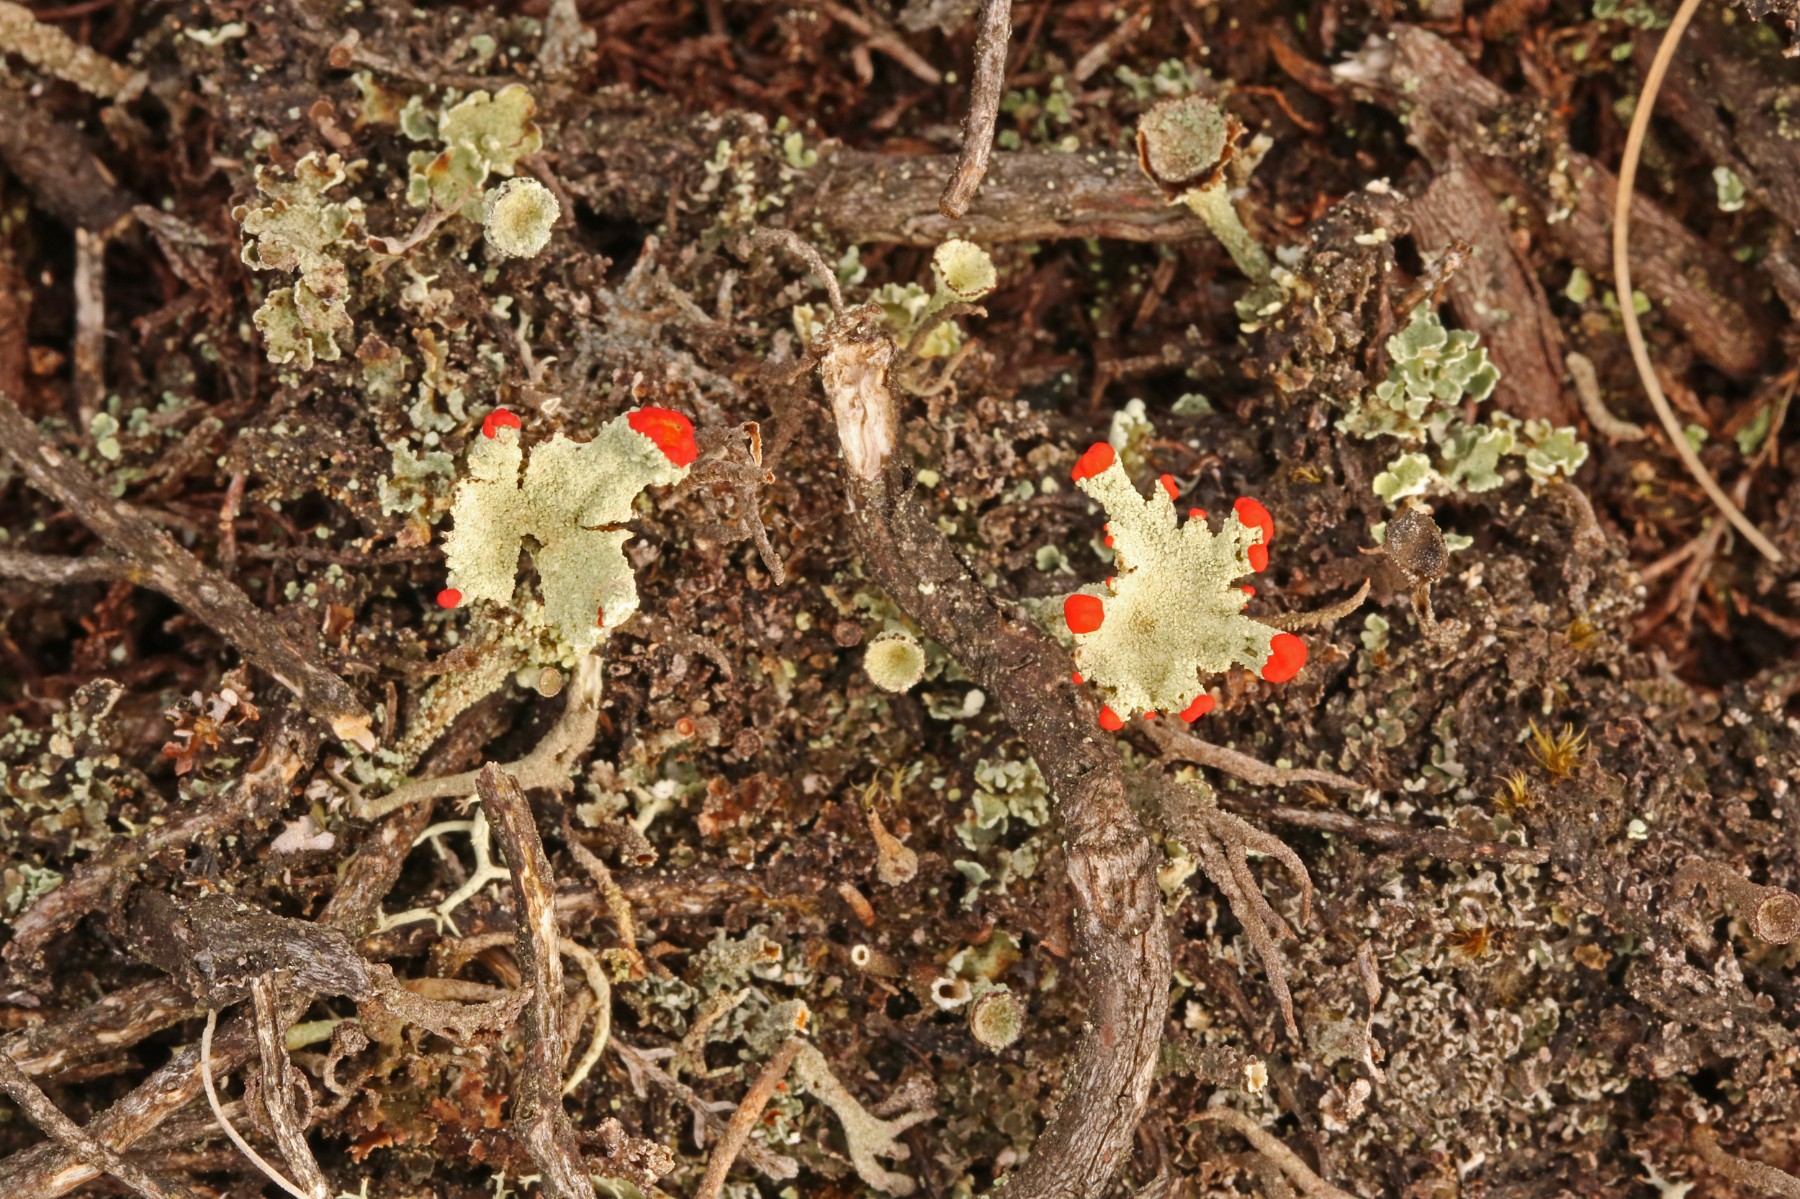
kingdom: Fungi
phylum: Ascomycota
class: Lecanoromycetes
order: Lecanorales
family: Cladoniaceae
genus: Cladonia
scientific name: Cladonia diversa
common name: rød bægerlav
